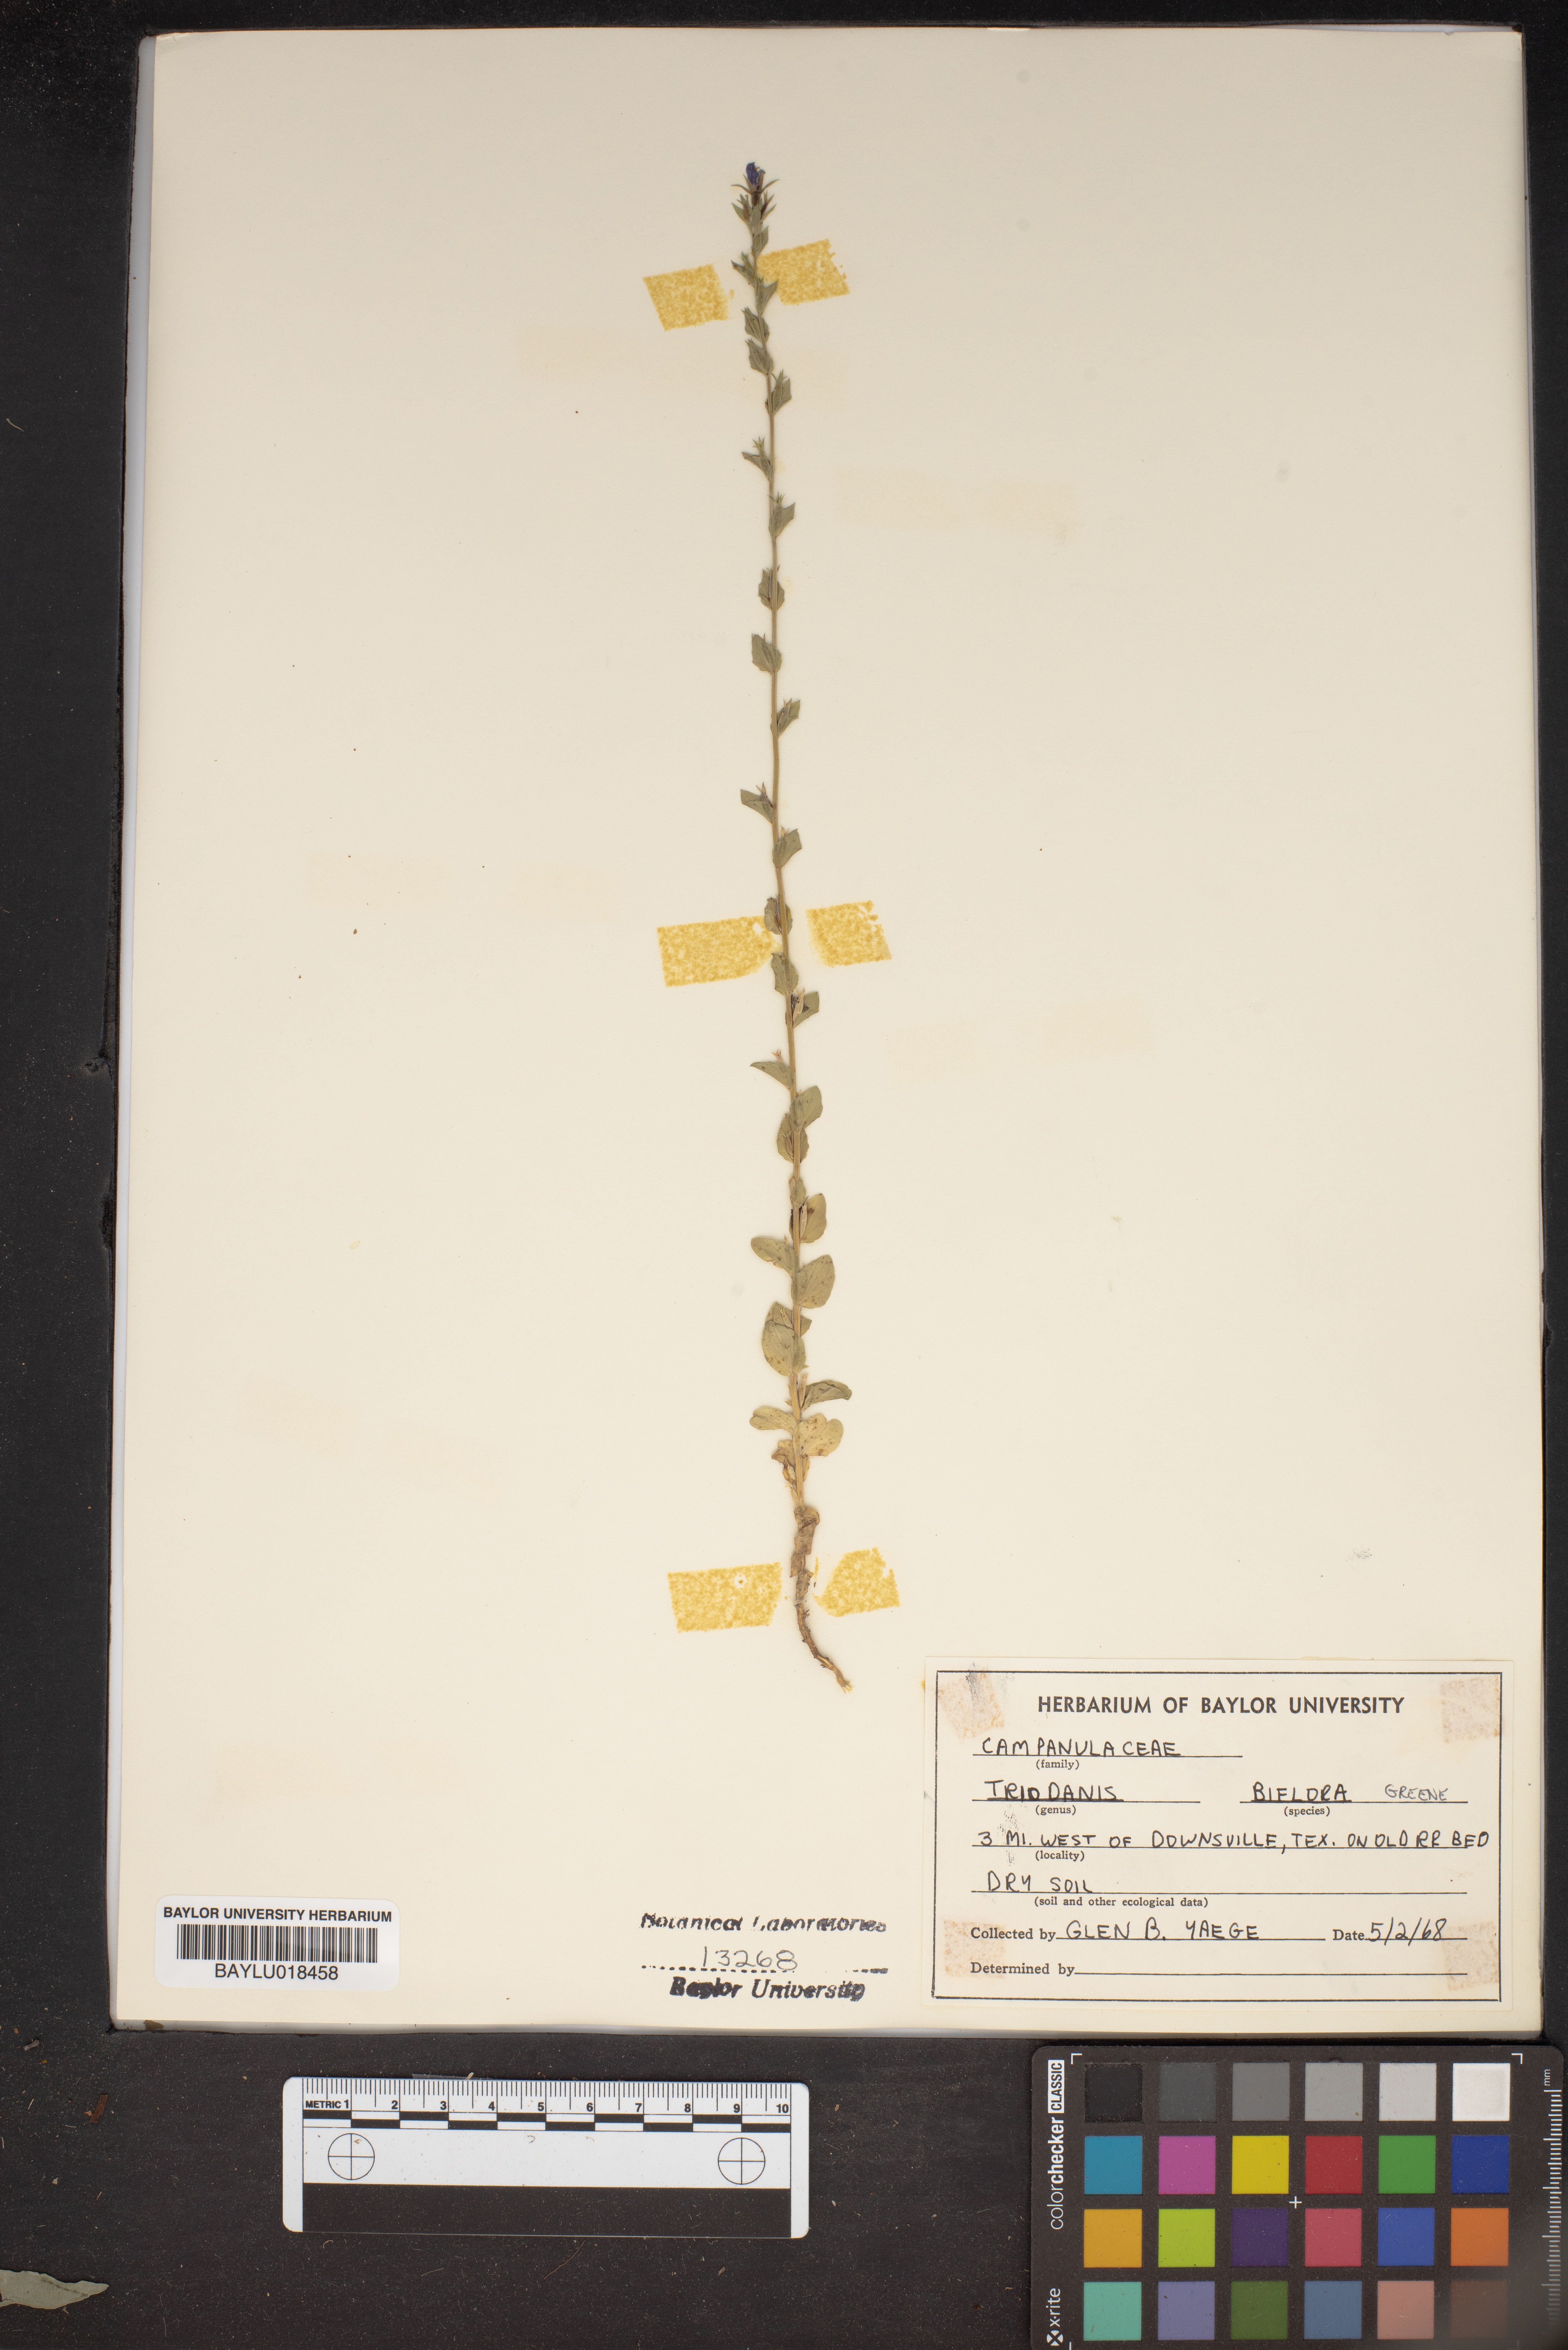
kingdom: Plantae
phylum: Tracheophyta
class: Magnoliopsida
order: Asterales
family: Campanulaceae
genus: Triodanis
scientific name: Triodanis perfoliata
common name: Clasping venus' looking-glass
